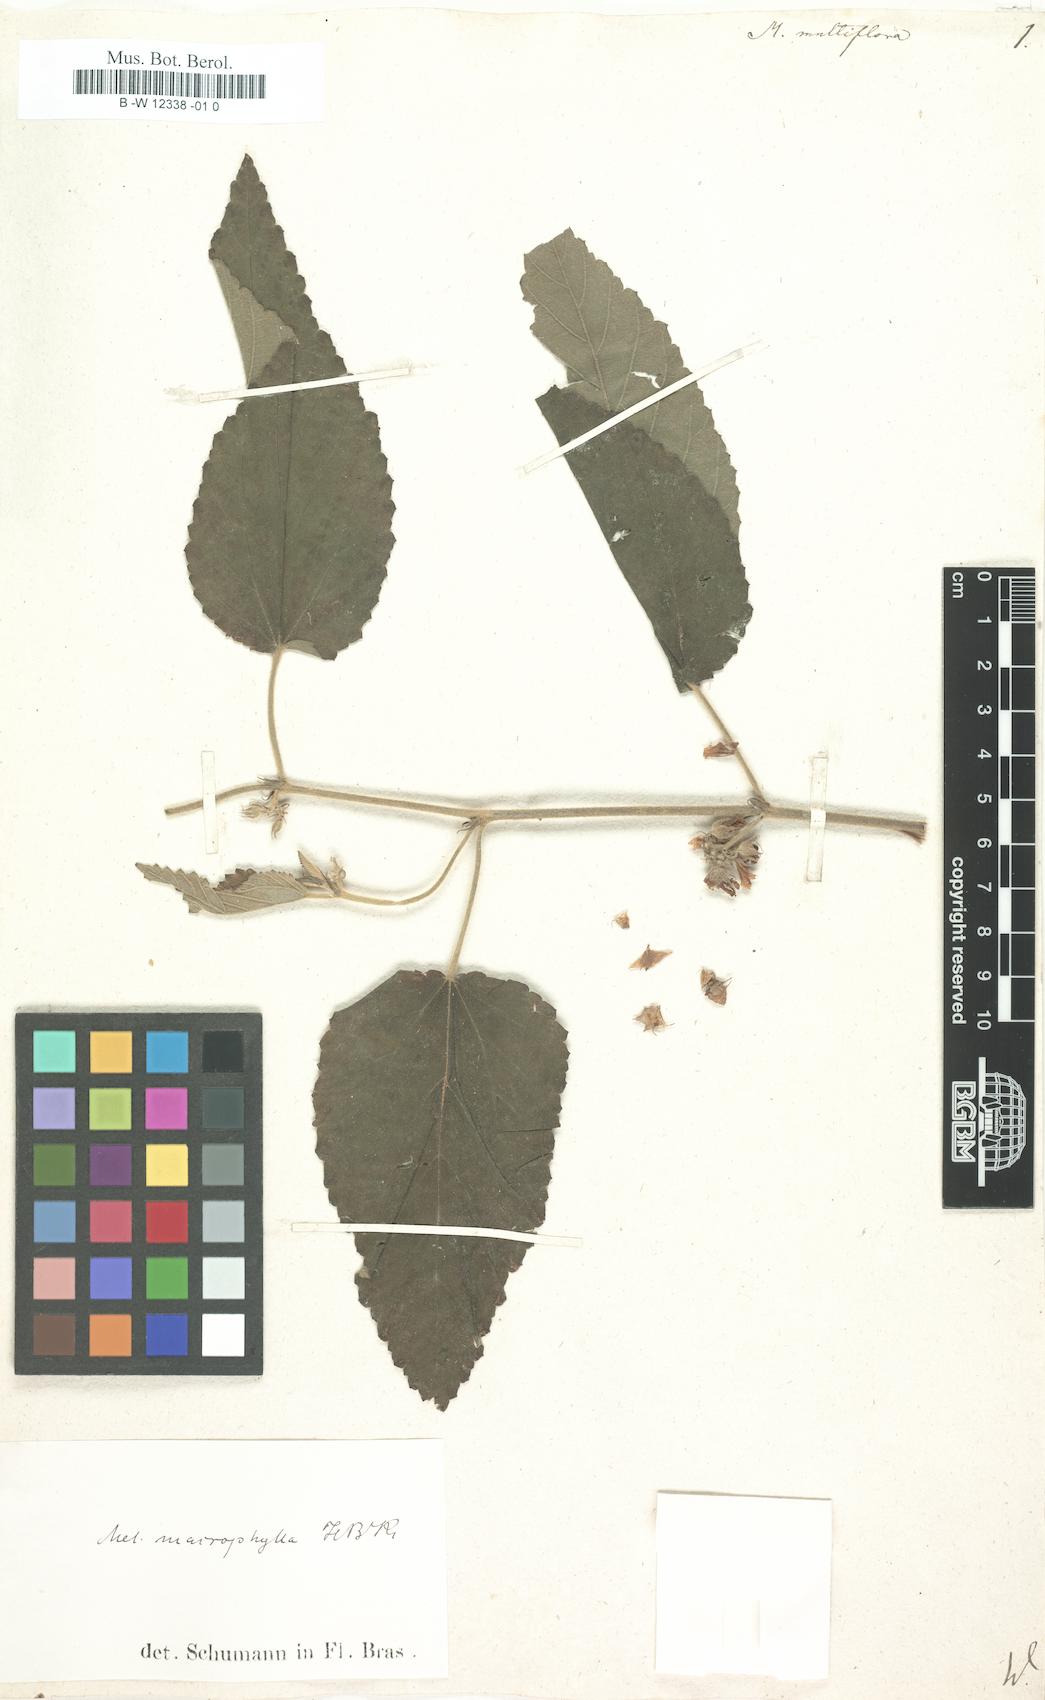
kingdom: Plantae
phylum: Tracheophyta
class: Magnoliopsida
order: Malvales
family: Malvaceae
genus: Melochia
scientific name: Melochia
